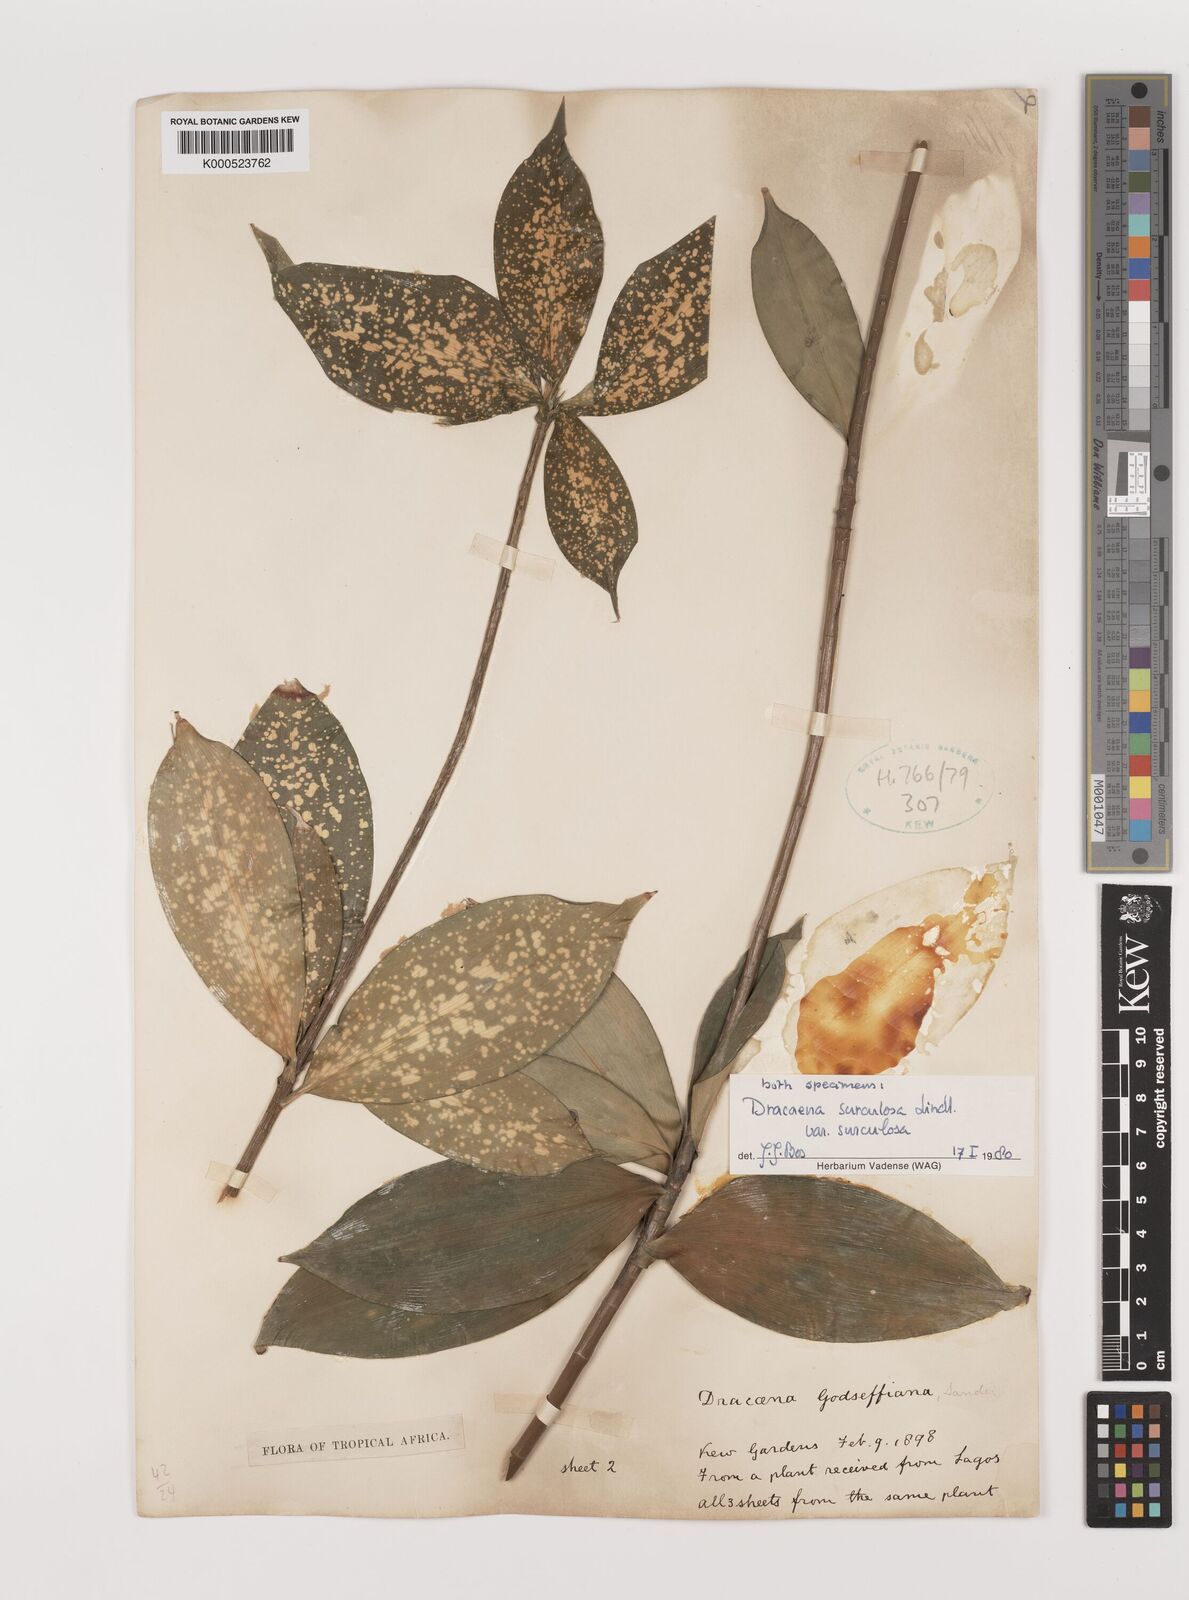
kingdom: Plantae
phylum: Tracheophyta
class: Liliopsida
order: Asparagales
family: Asparagaceae
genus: Dracaena
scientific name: Dracaena surculosa
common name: Spotted dracaena
